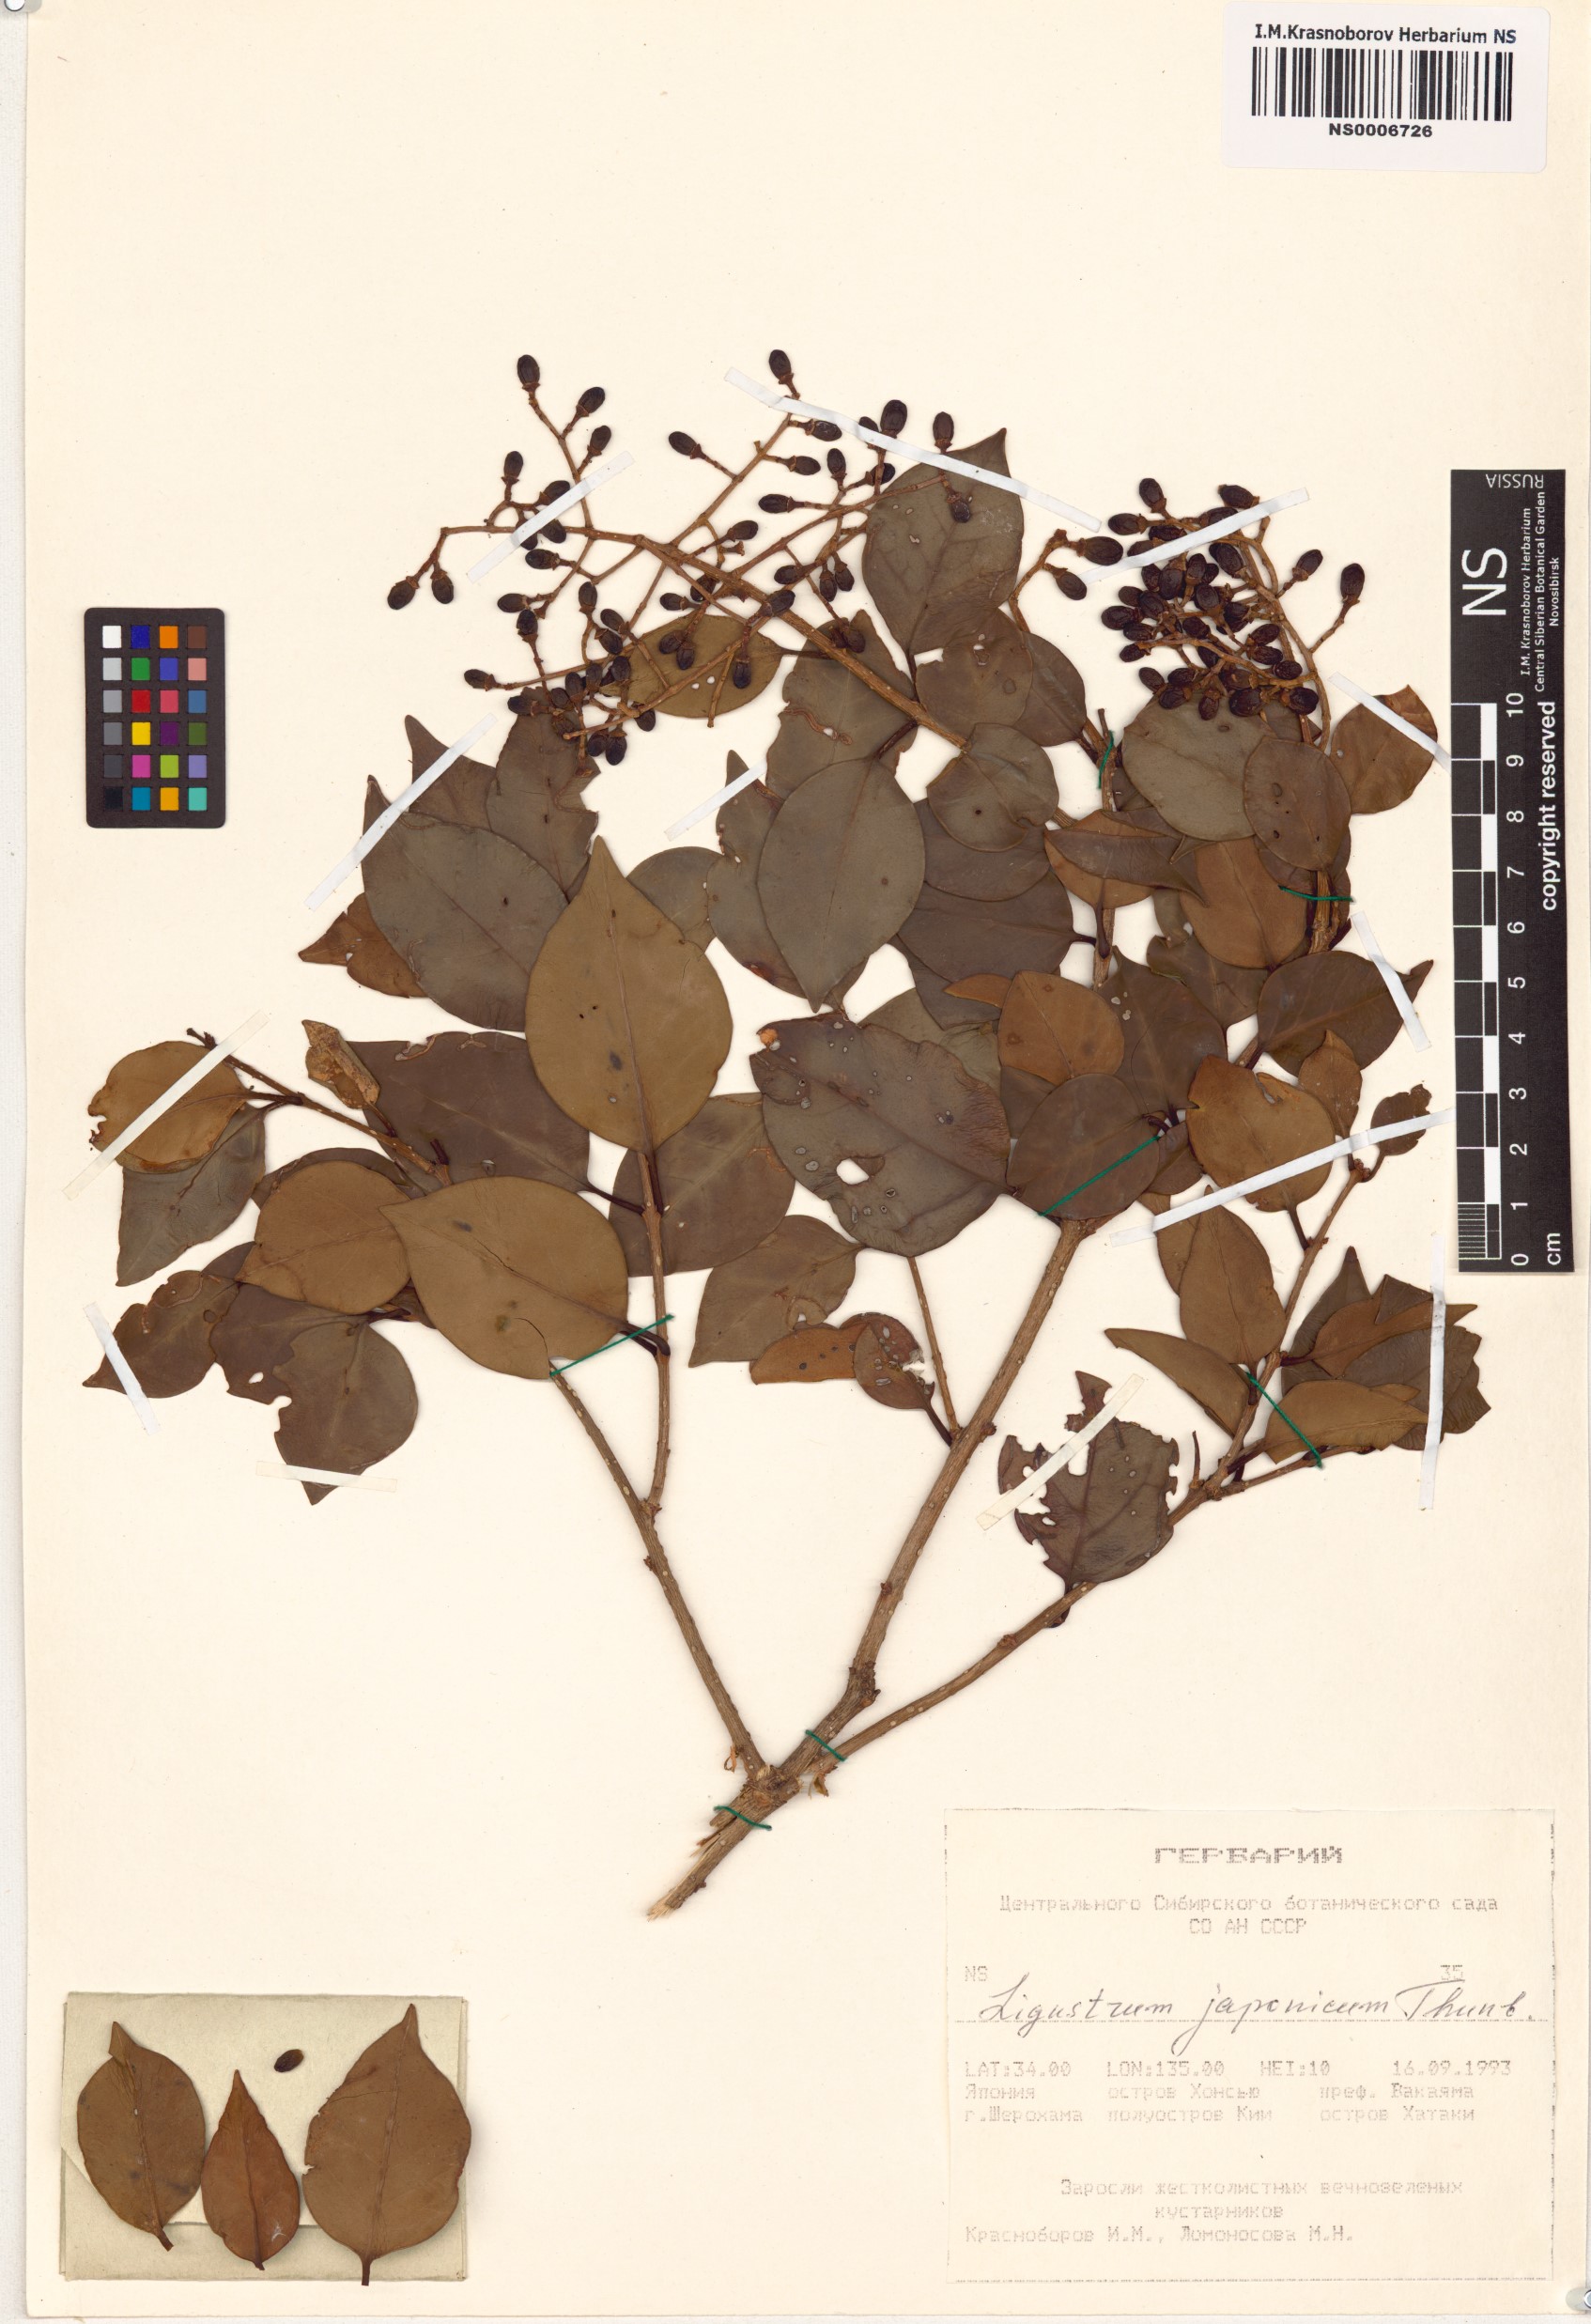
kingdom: Plantae
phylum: Tracheophyta
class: Magnoliopsida
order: Lamiales
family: Oleaceae
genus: Ligustrum
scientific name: Ligustrum japonicum
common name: Japanese privet
